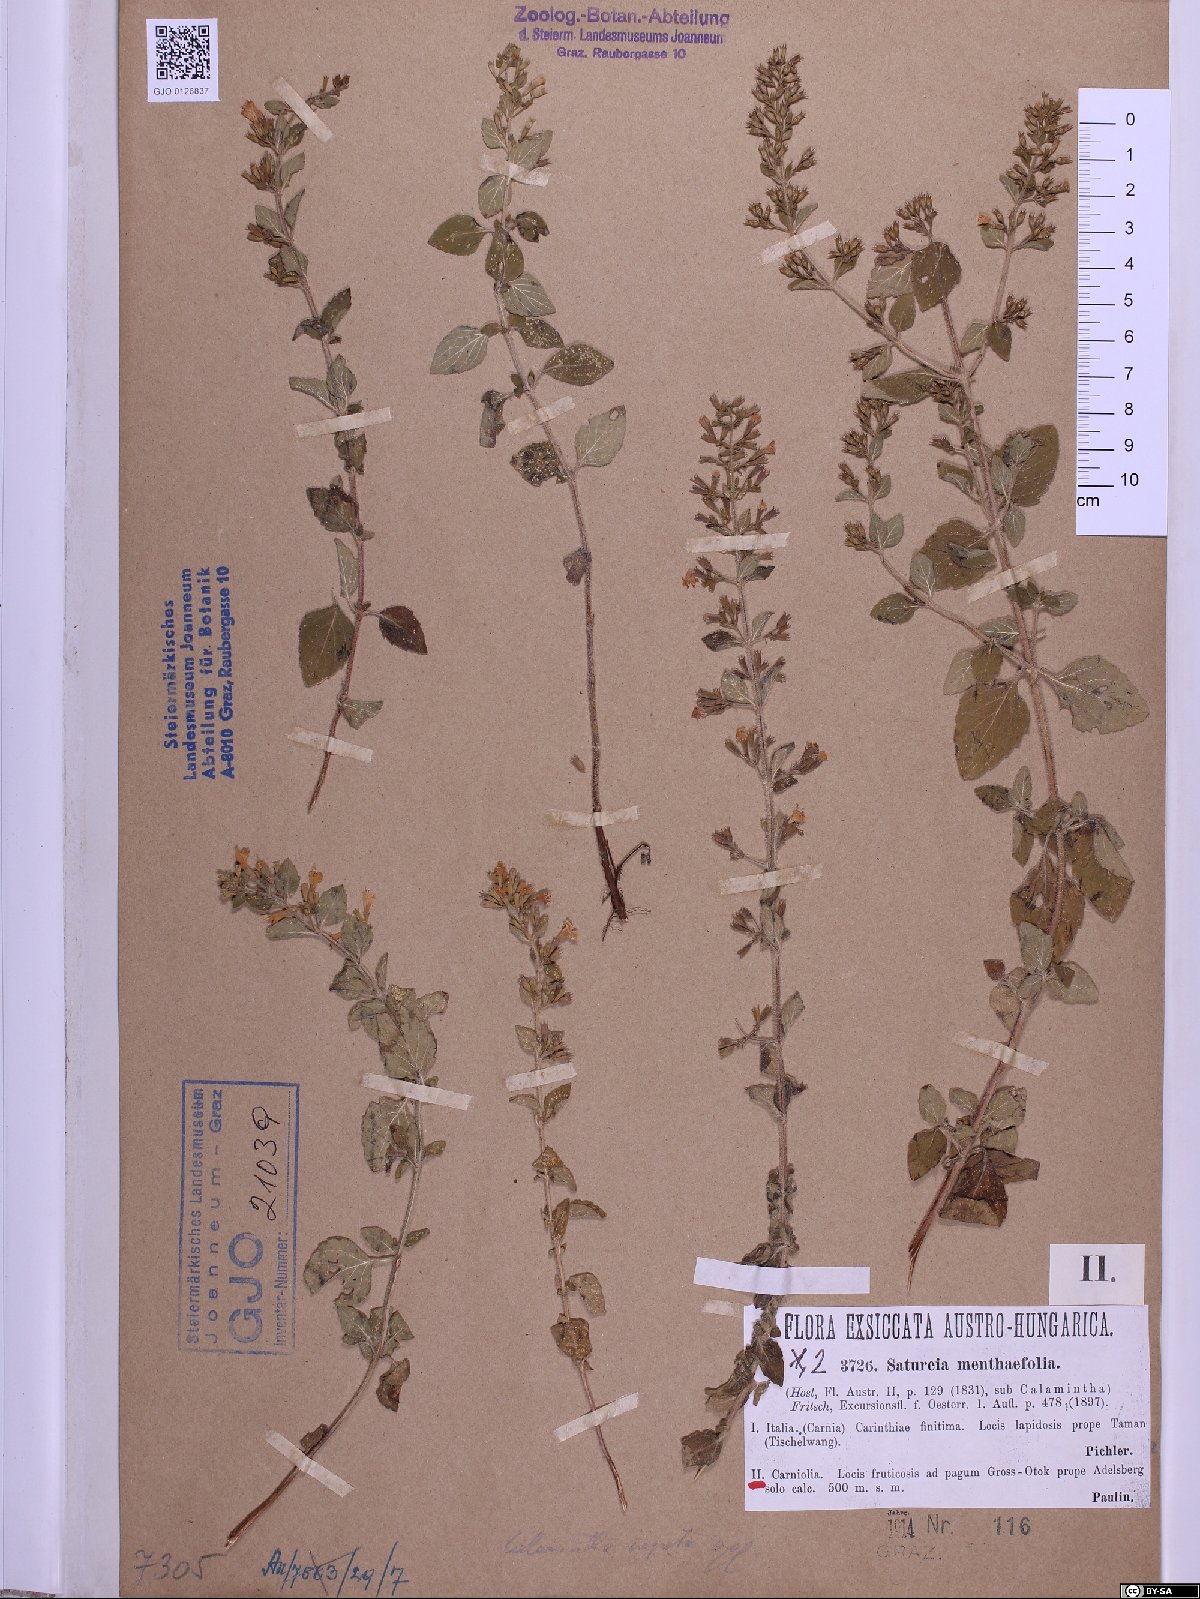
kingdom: Plantae
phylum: Tracheophyta
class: Magnoliopsida
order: Lamiales
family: Lamiaceae
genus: Clinopodium
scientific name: Clinopodium menthifolium
